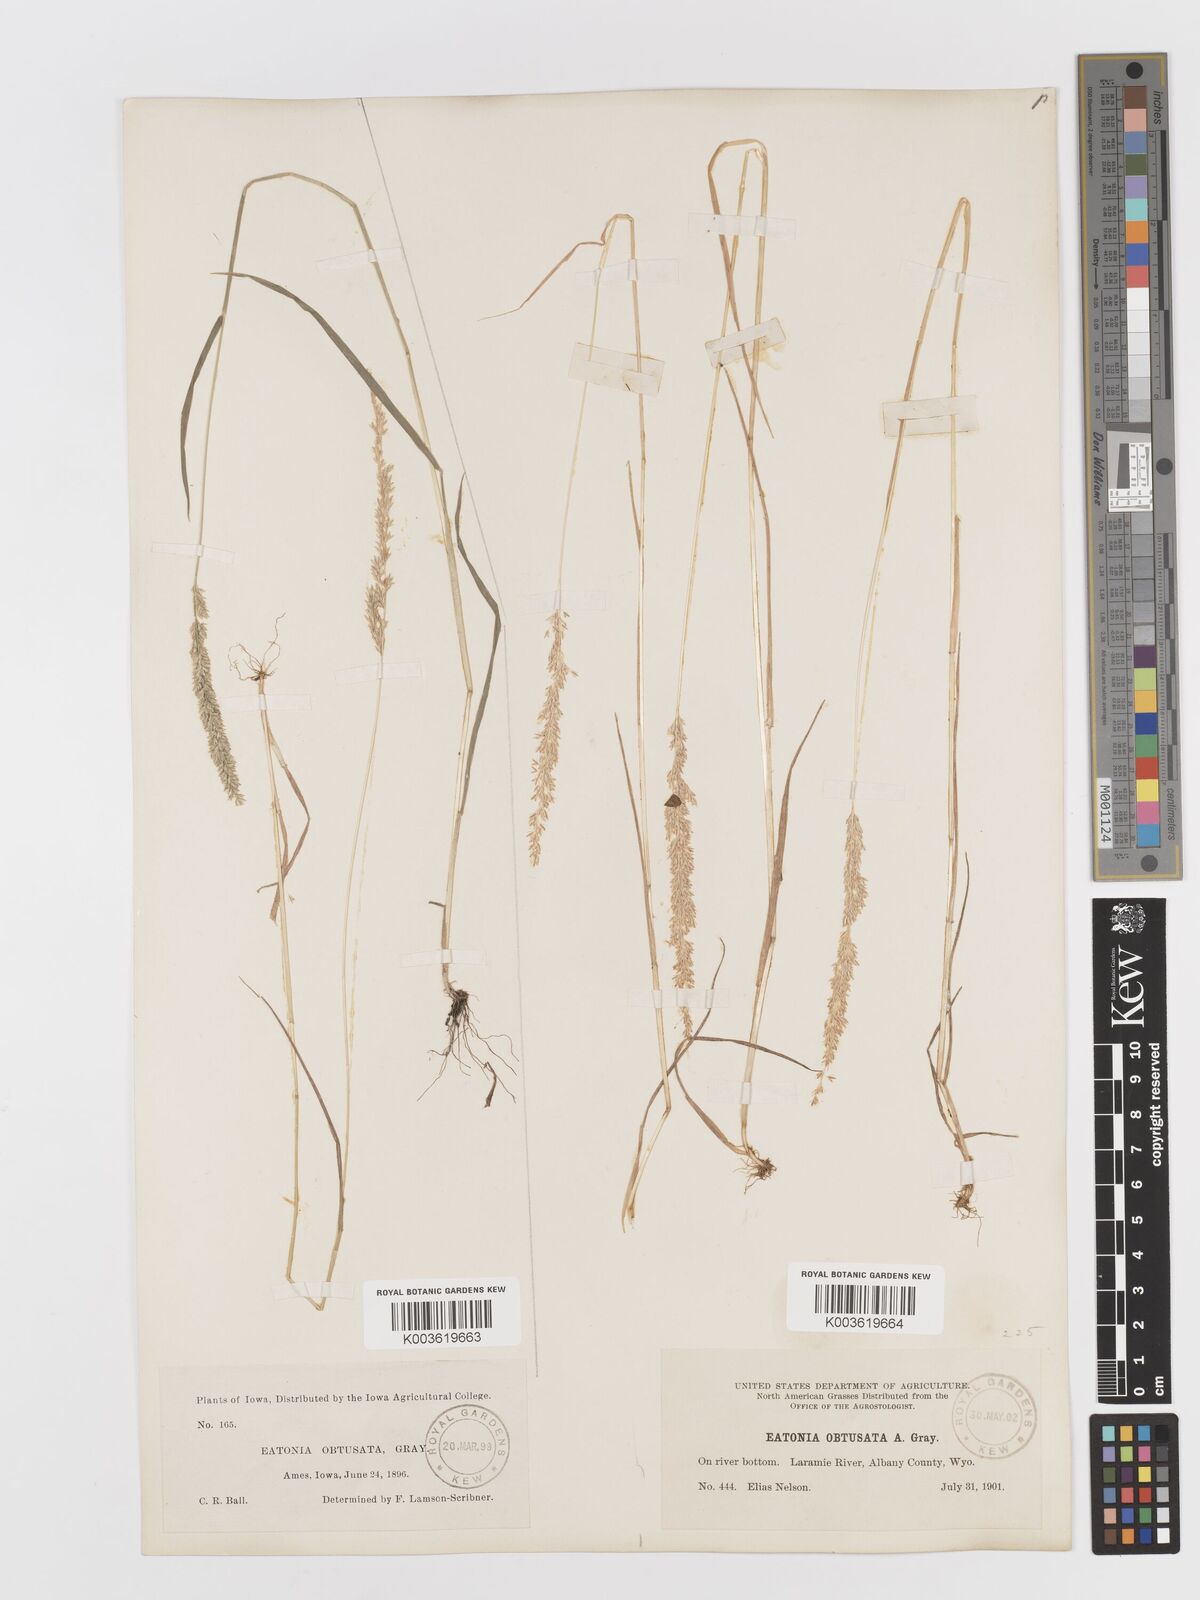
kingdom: Plantae
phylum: Tracheophyta
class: Liliopsida
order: Poales
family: Poaceae
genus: Sphenopholis
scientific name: Sphenopholis obtusata
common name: Prairie grass
